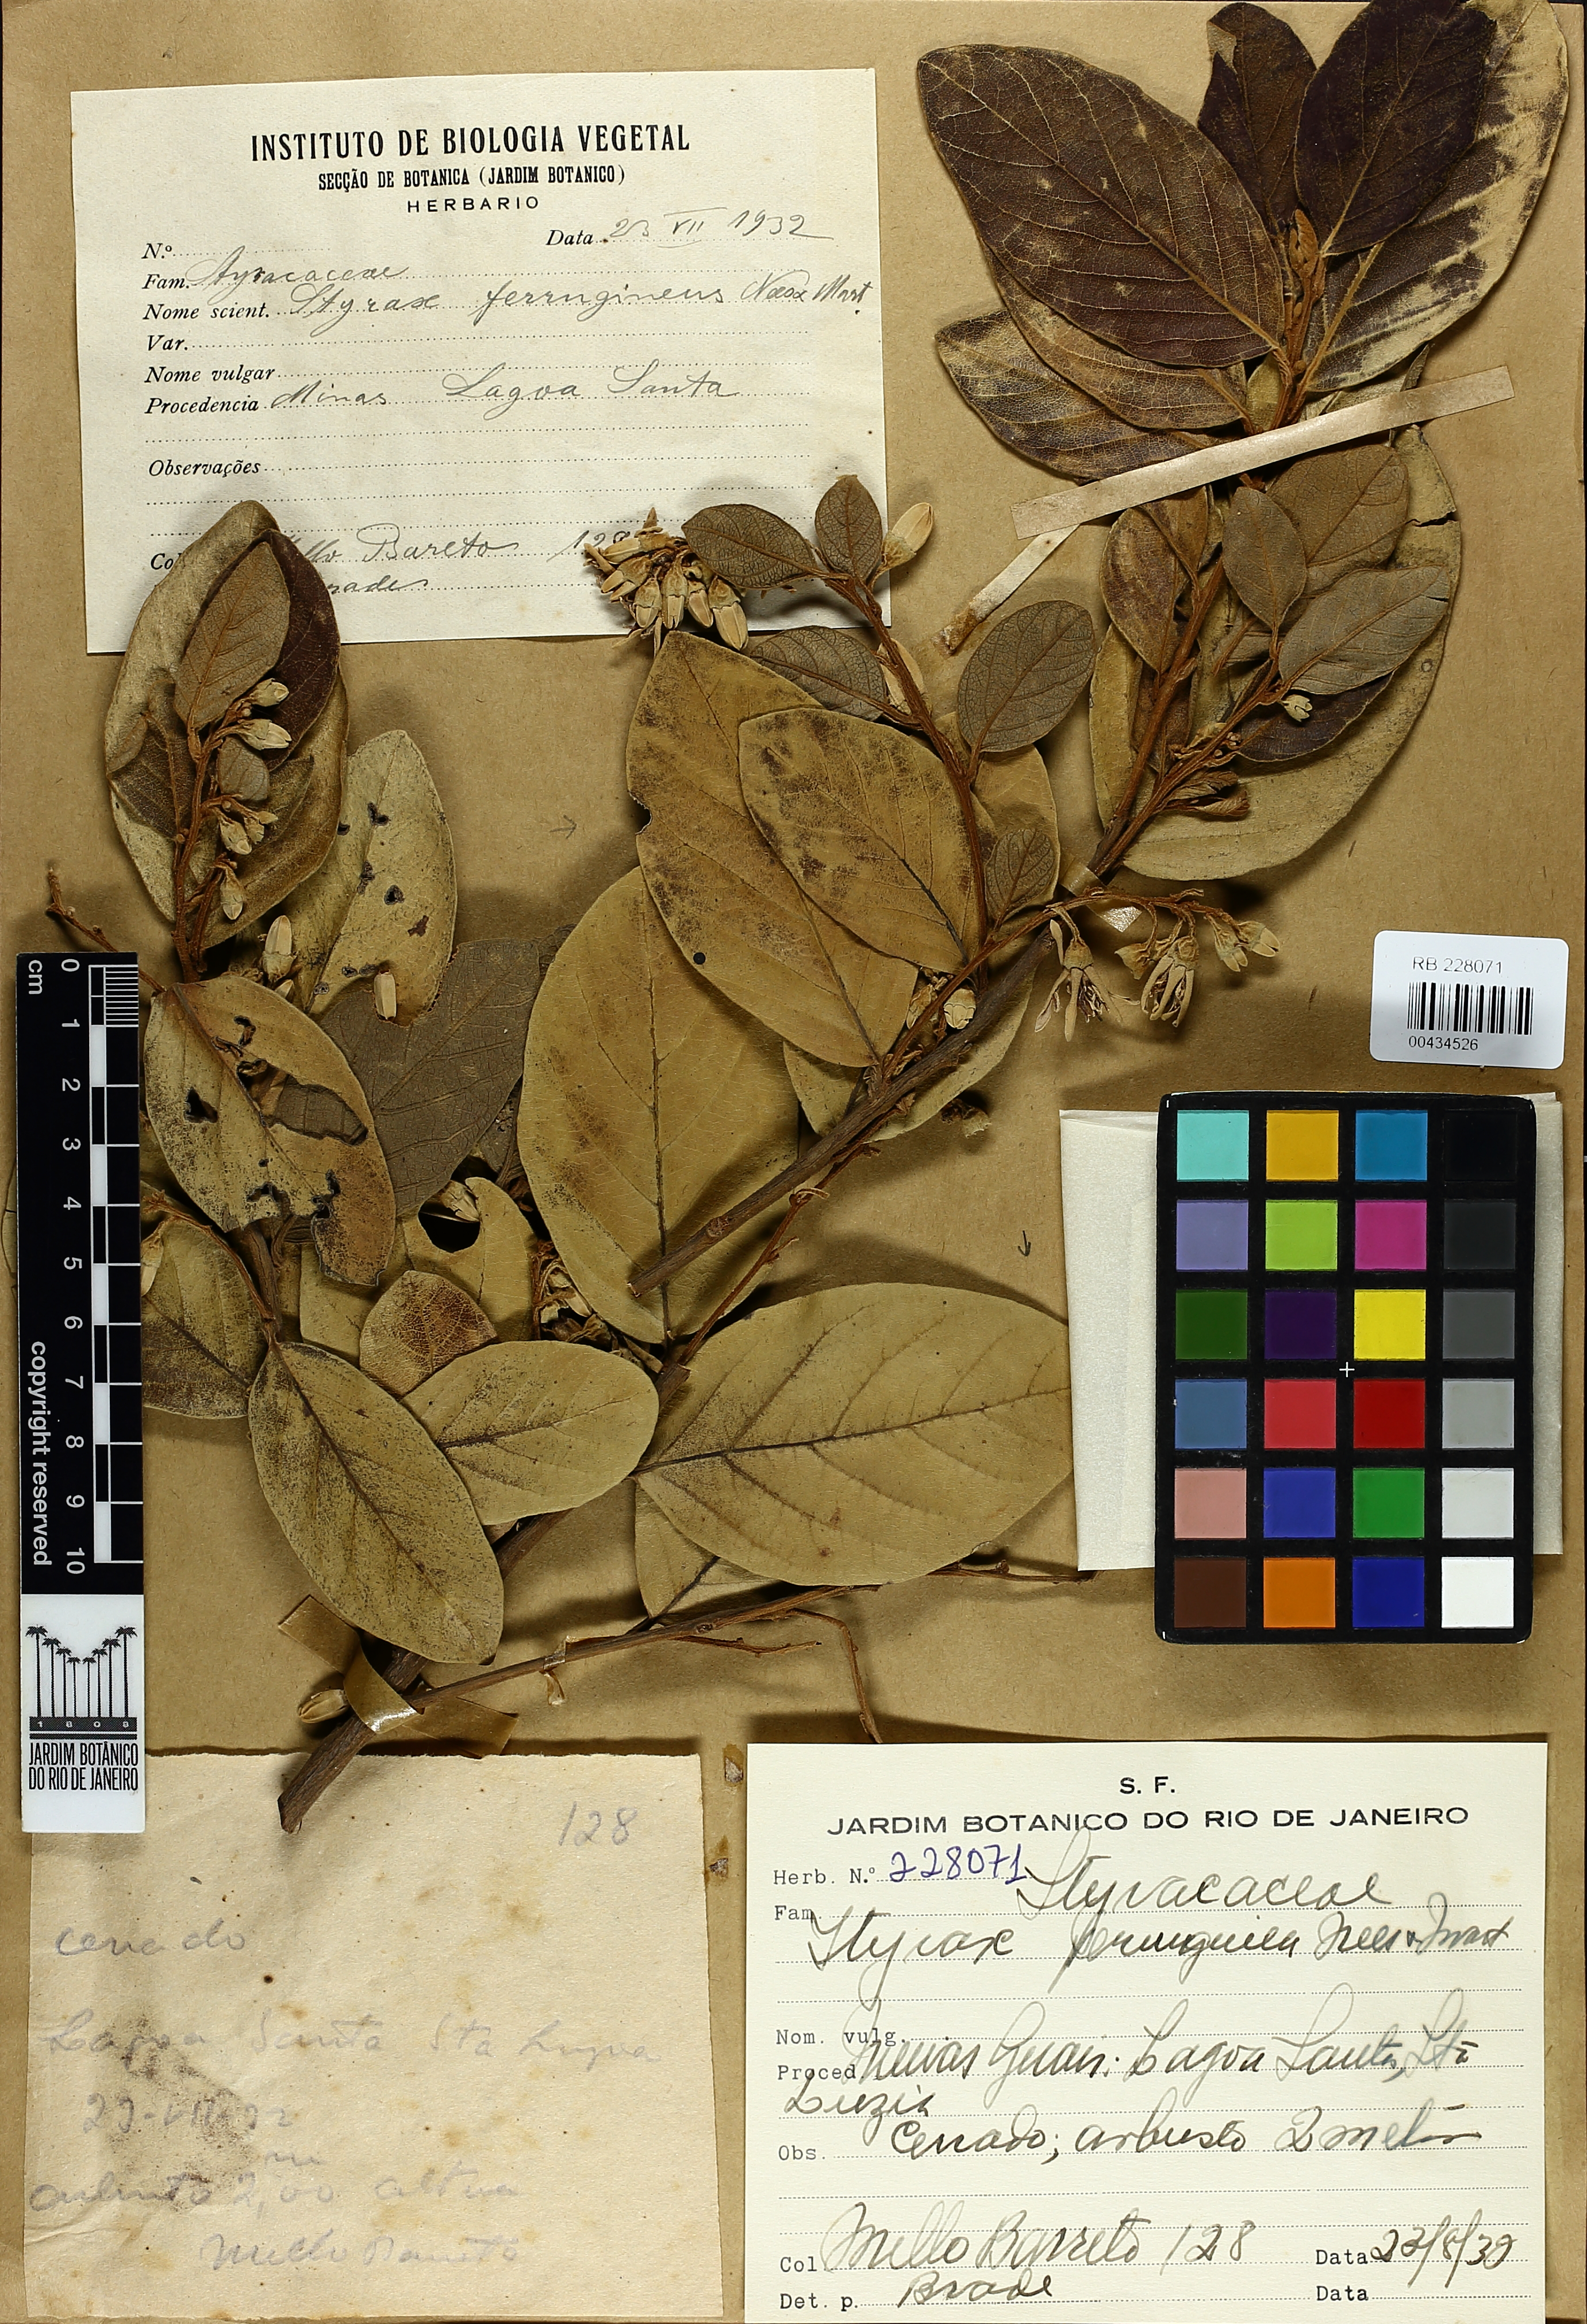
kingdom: Plantae
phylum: Tracheophyta
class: Magnoliopsida
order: Ericales
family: Styracaceae
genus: Styrax
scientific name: Styrax ferrugineus
